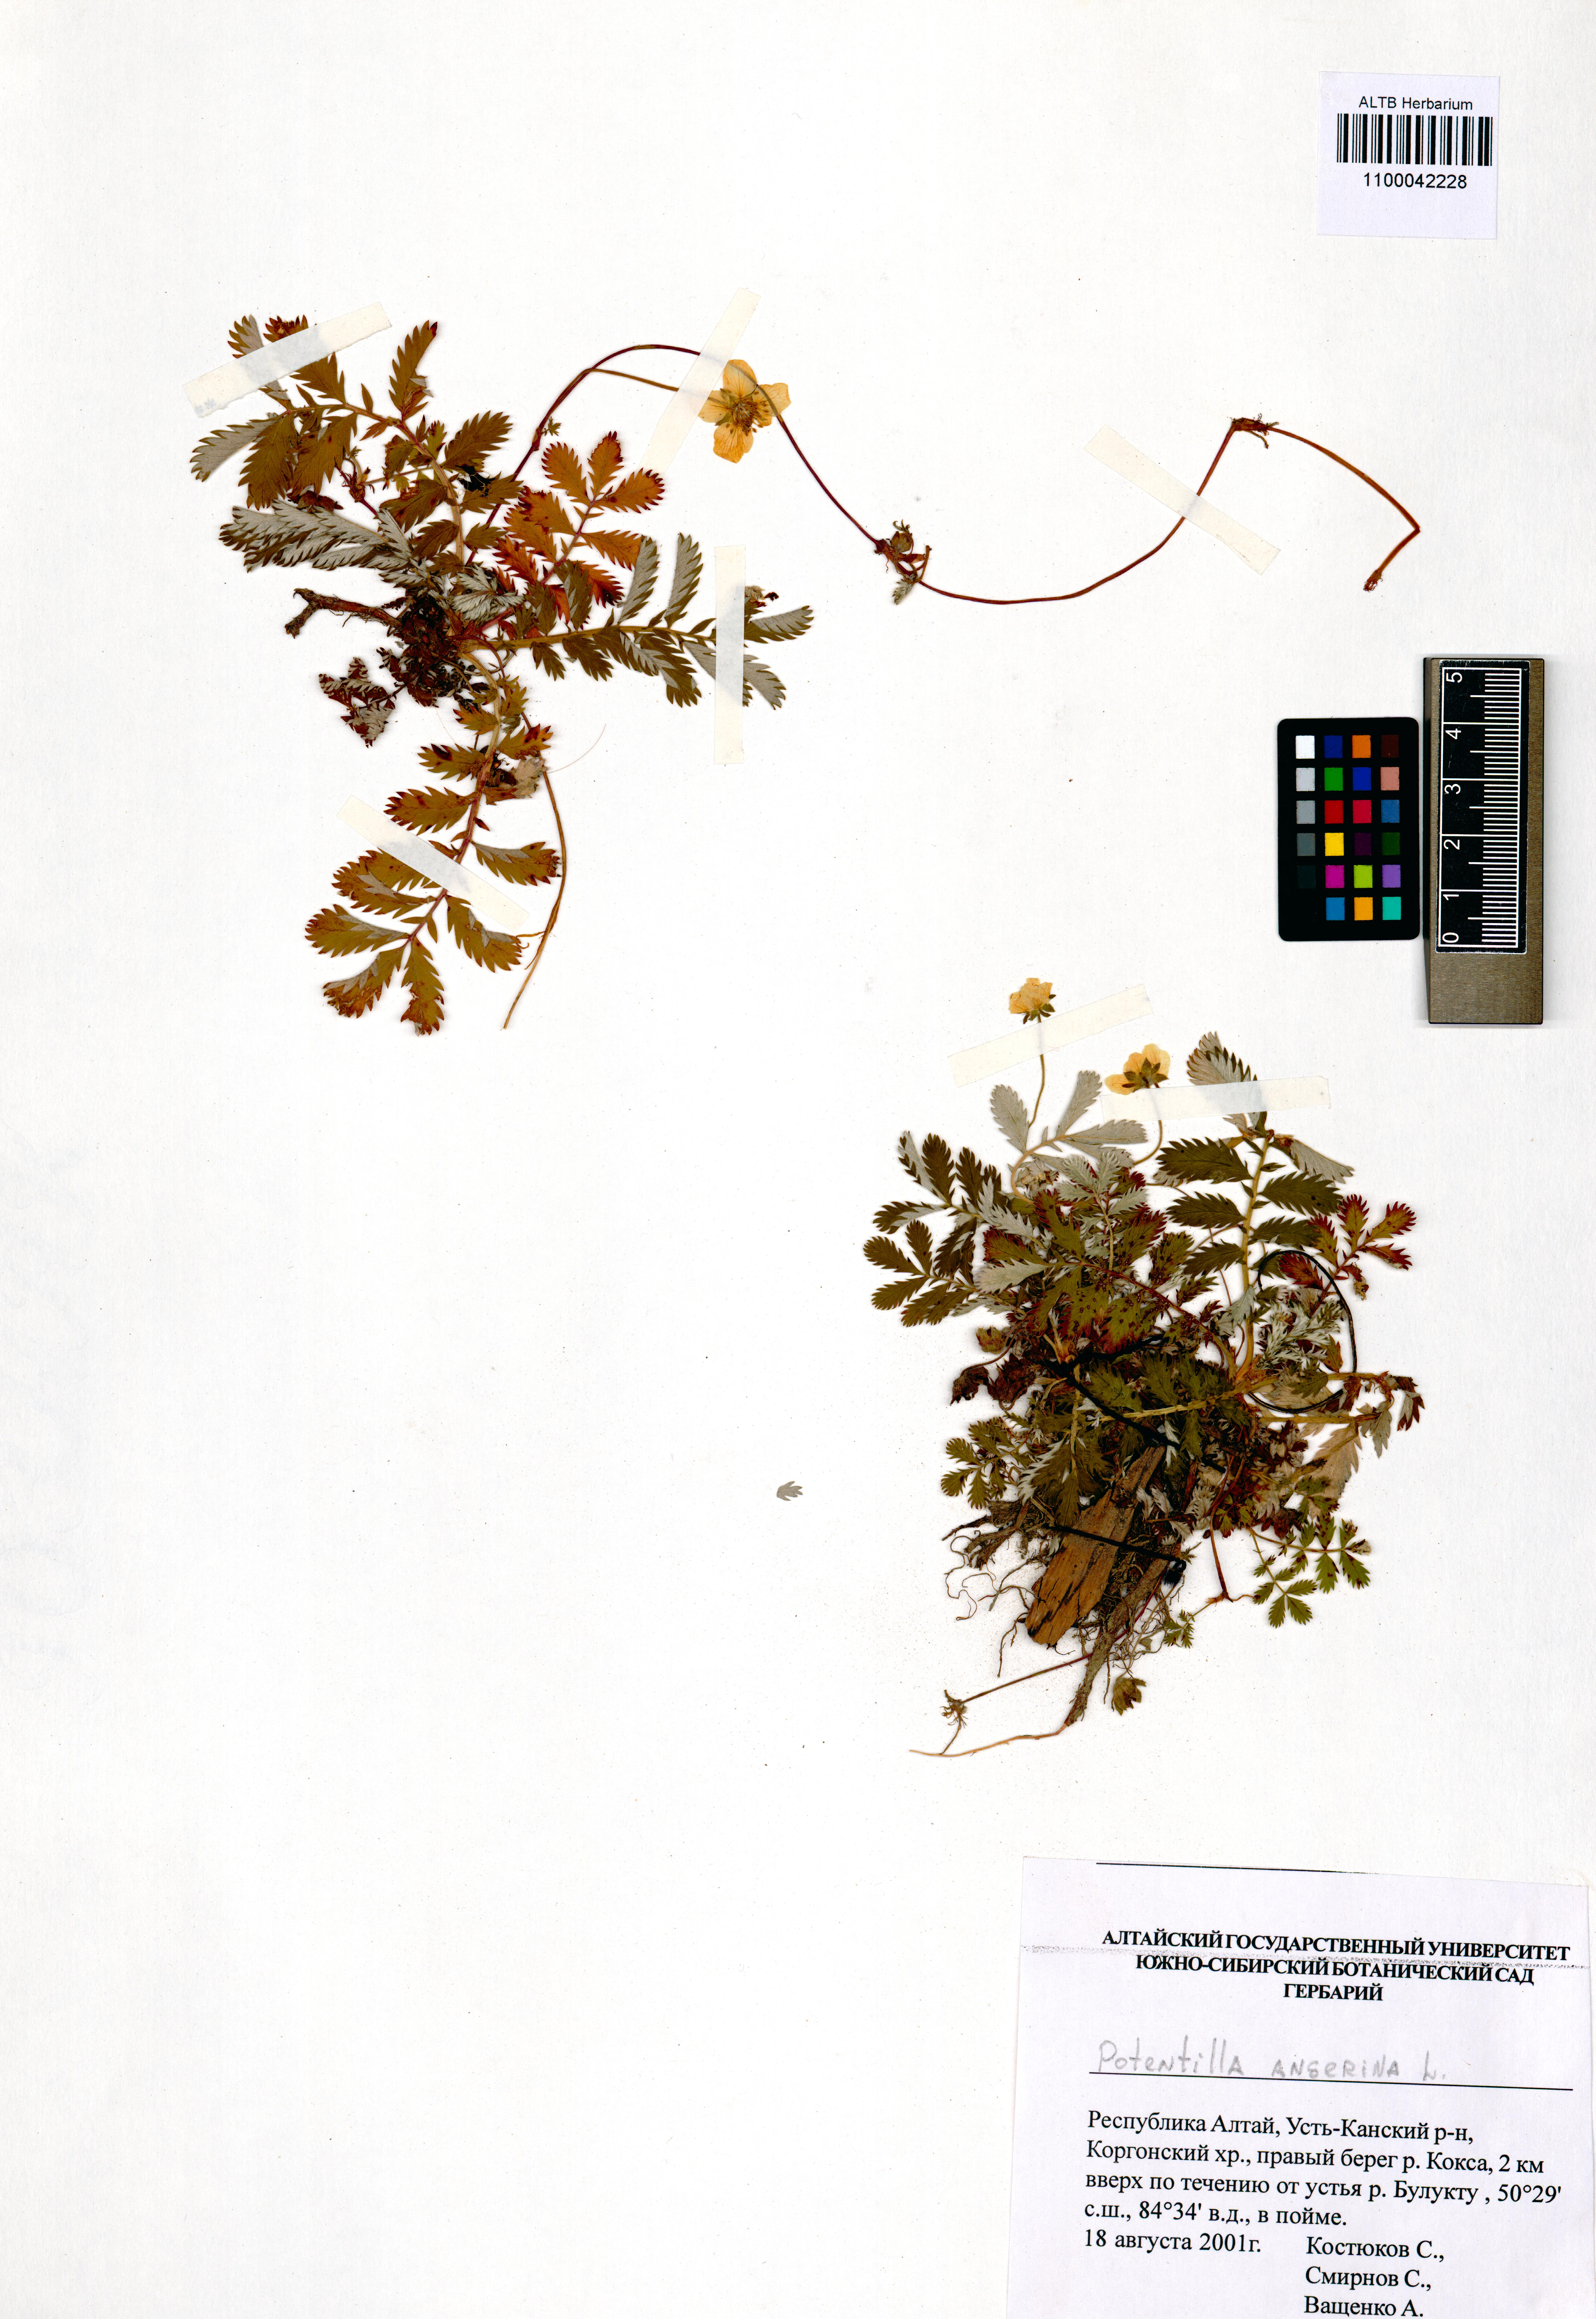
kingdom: Plantae
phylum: Tracheophyta
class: Magnoliopsida
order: Rosales
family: Rosaceae
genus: Argentina
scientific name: Argentina anserina
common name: Common silverweed
